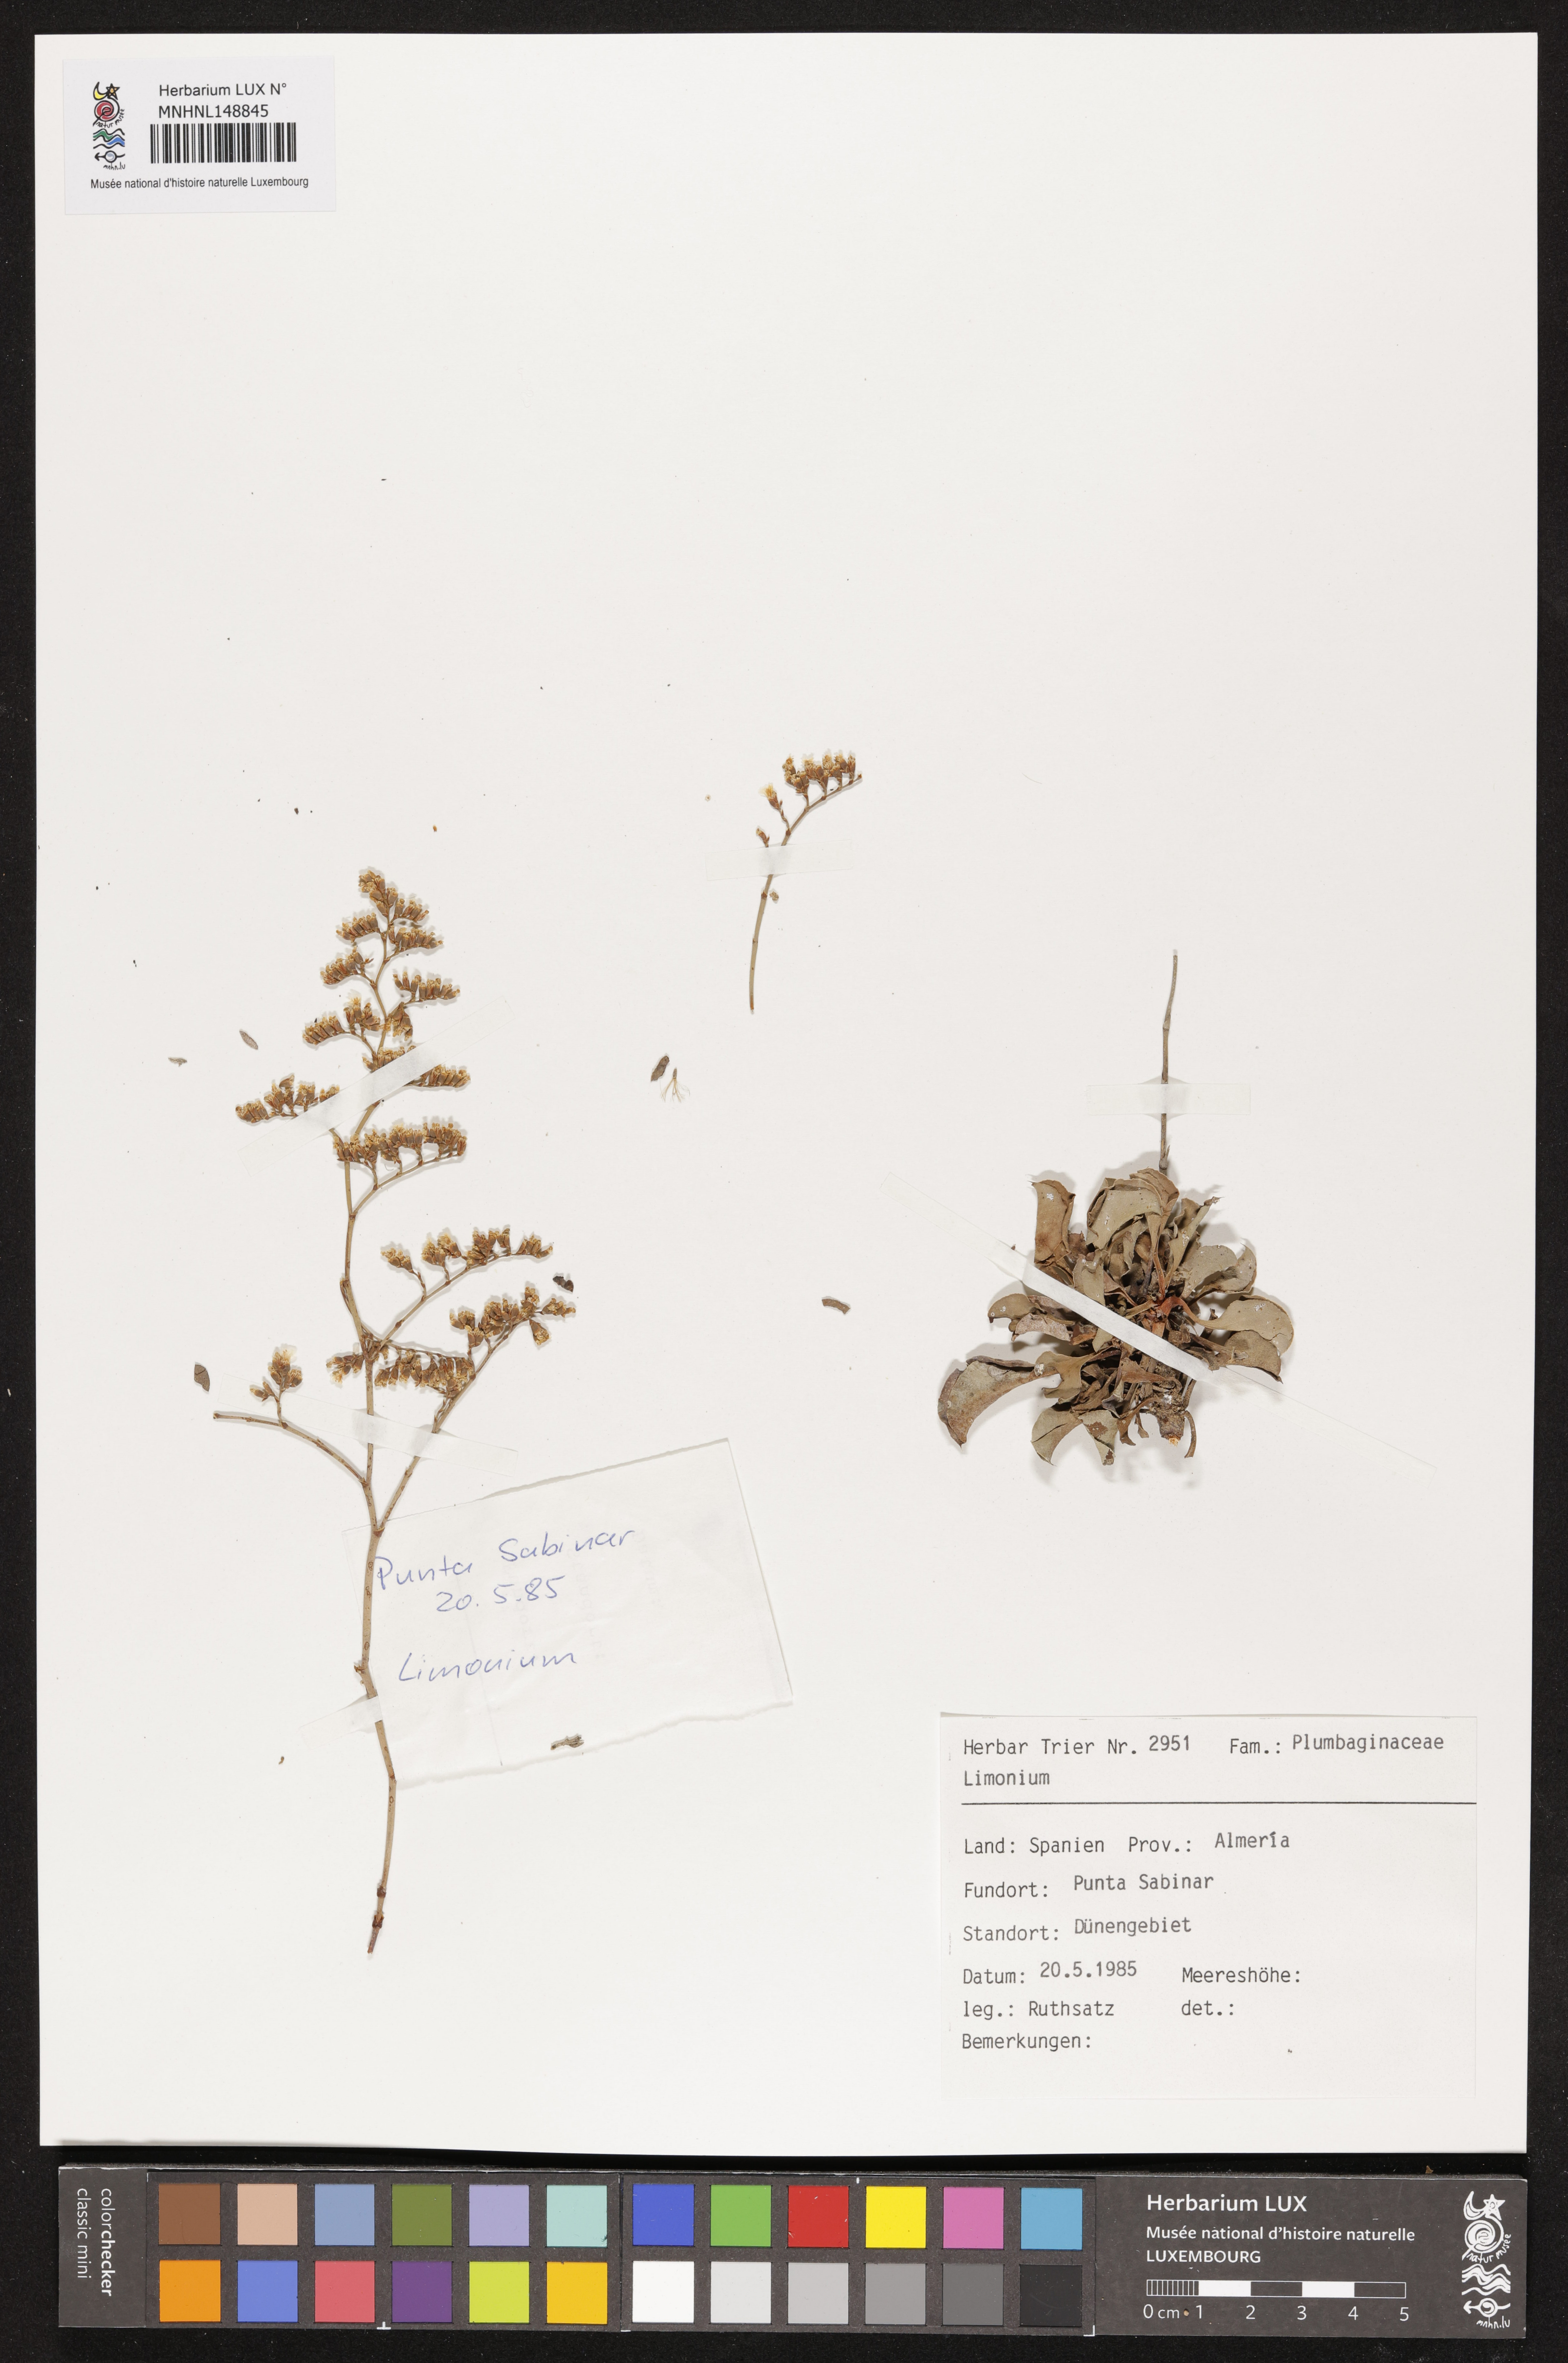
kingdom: Plantae
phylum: Tracheophyta
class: Magnoliopsida
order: Caryophyllales
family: Plumbaginaceae
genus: Limonium
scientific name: Limonium
